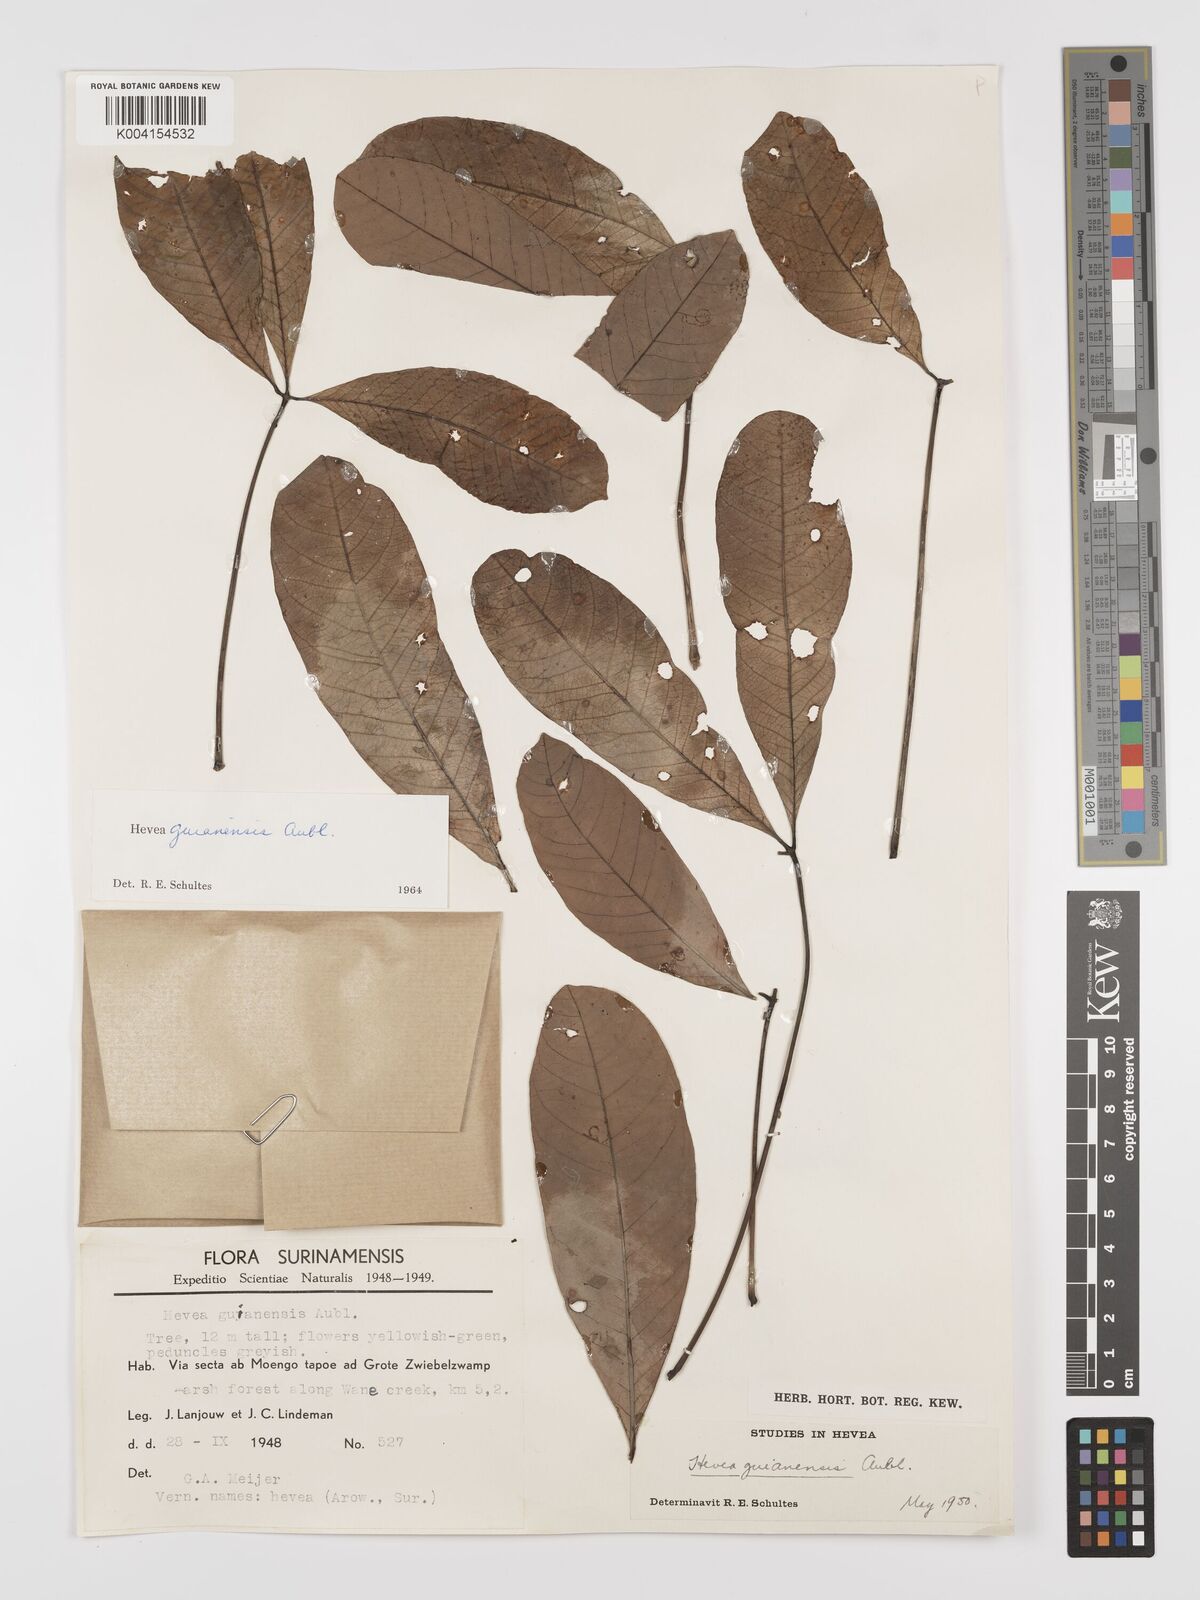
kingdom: Plantae
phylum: Tracheophyta
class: Magnoliopsida
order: Malpighiales
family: Euphorbiaceae
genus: Hevea
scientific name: Hevea guianensis
